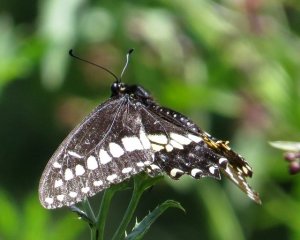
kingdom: Animalia
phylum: Arthropoda
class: Insecta
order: Lepidoptera
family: Papilionidae
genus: Papilio
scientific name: Papilio polyxenes
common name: Black Swallowtail
